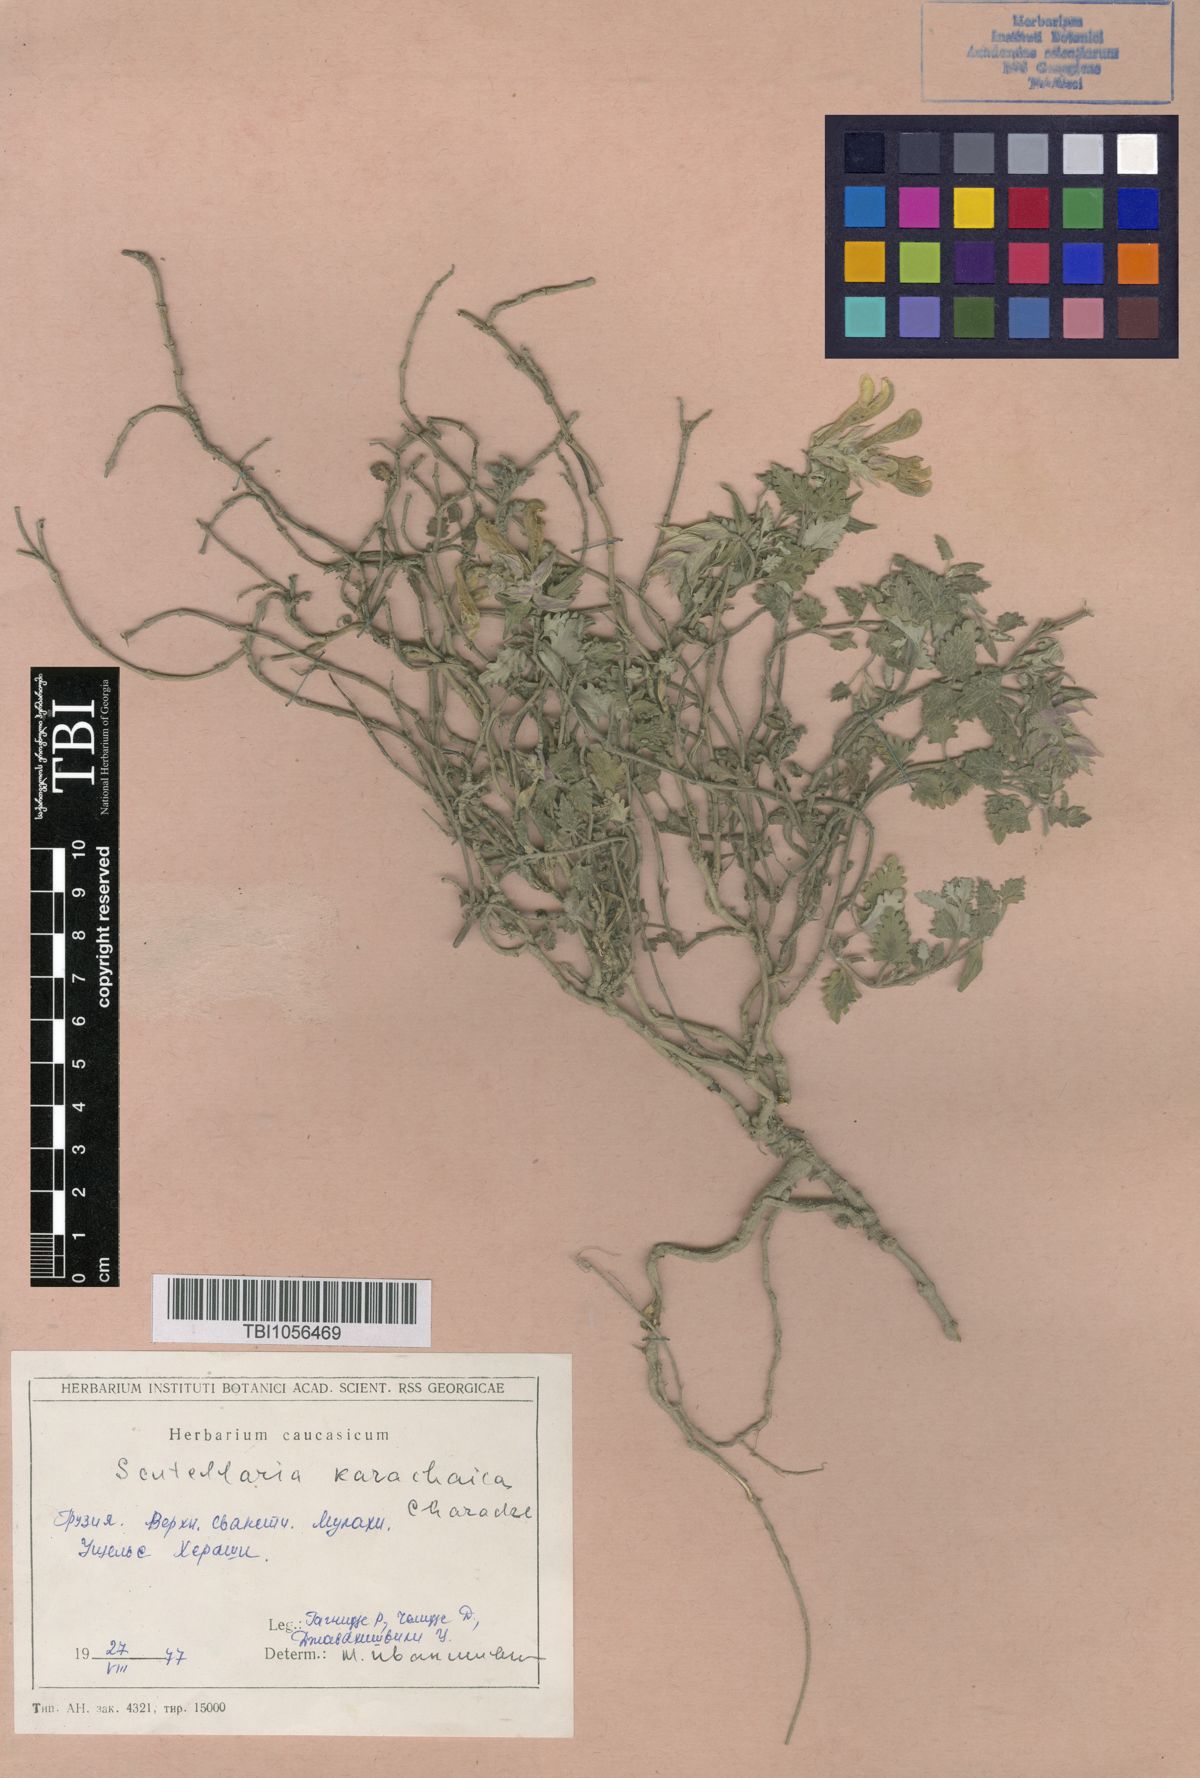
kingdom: Plantae
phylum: Tracheophyta
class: Magnoliopsida
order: Lamiales
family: Lamiaceae
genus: Scutellaria
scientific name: Scutellaria orientalis
